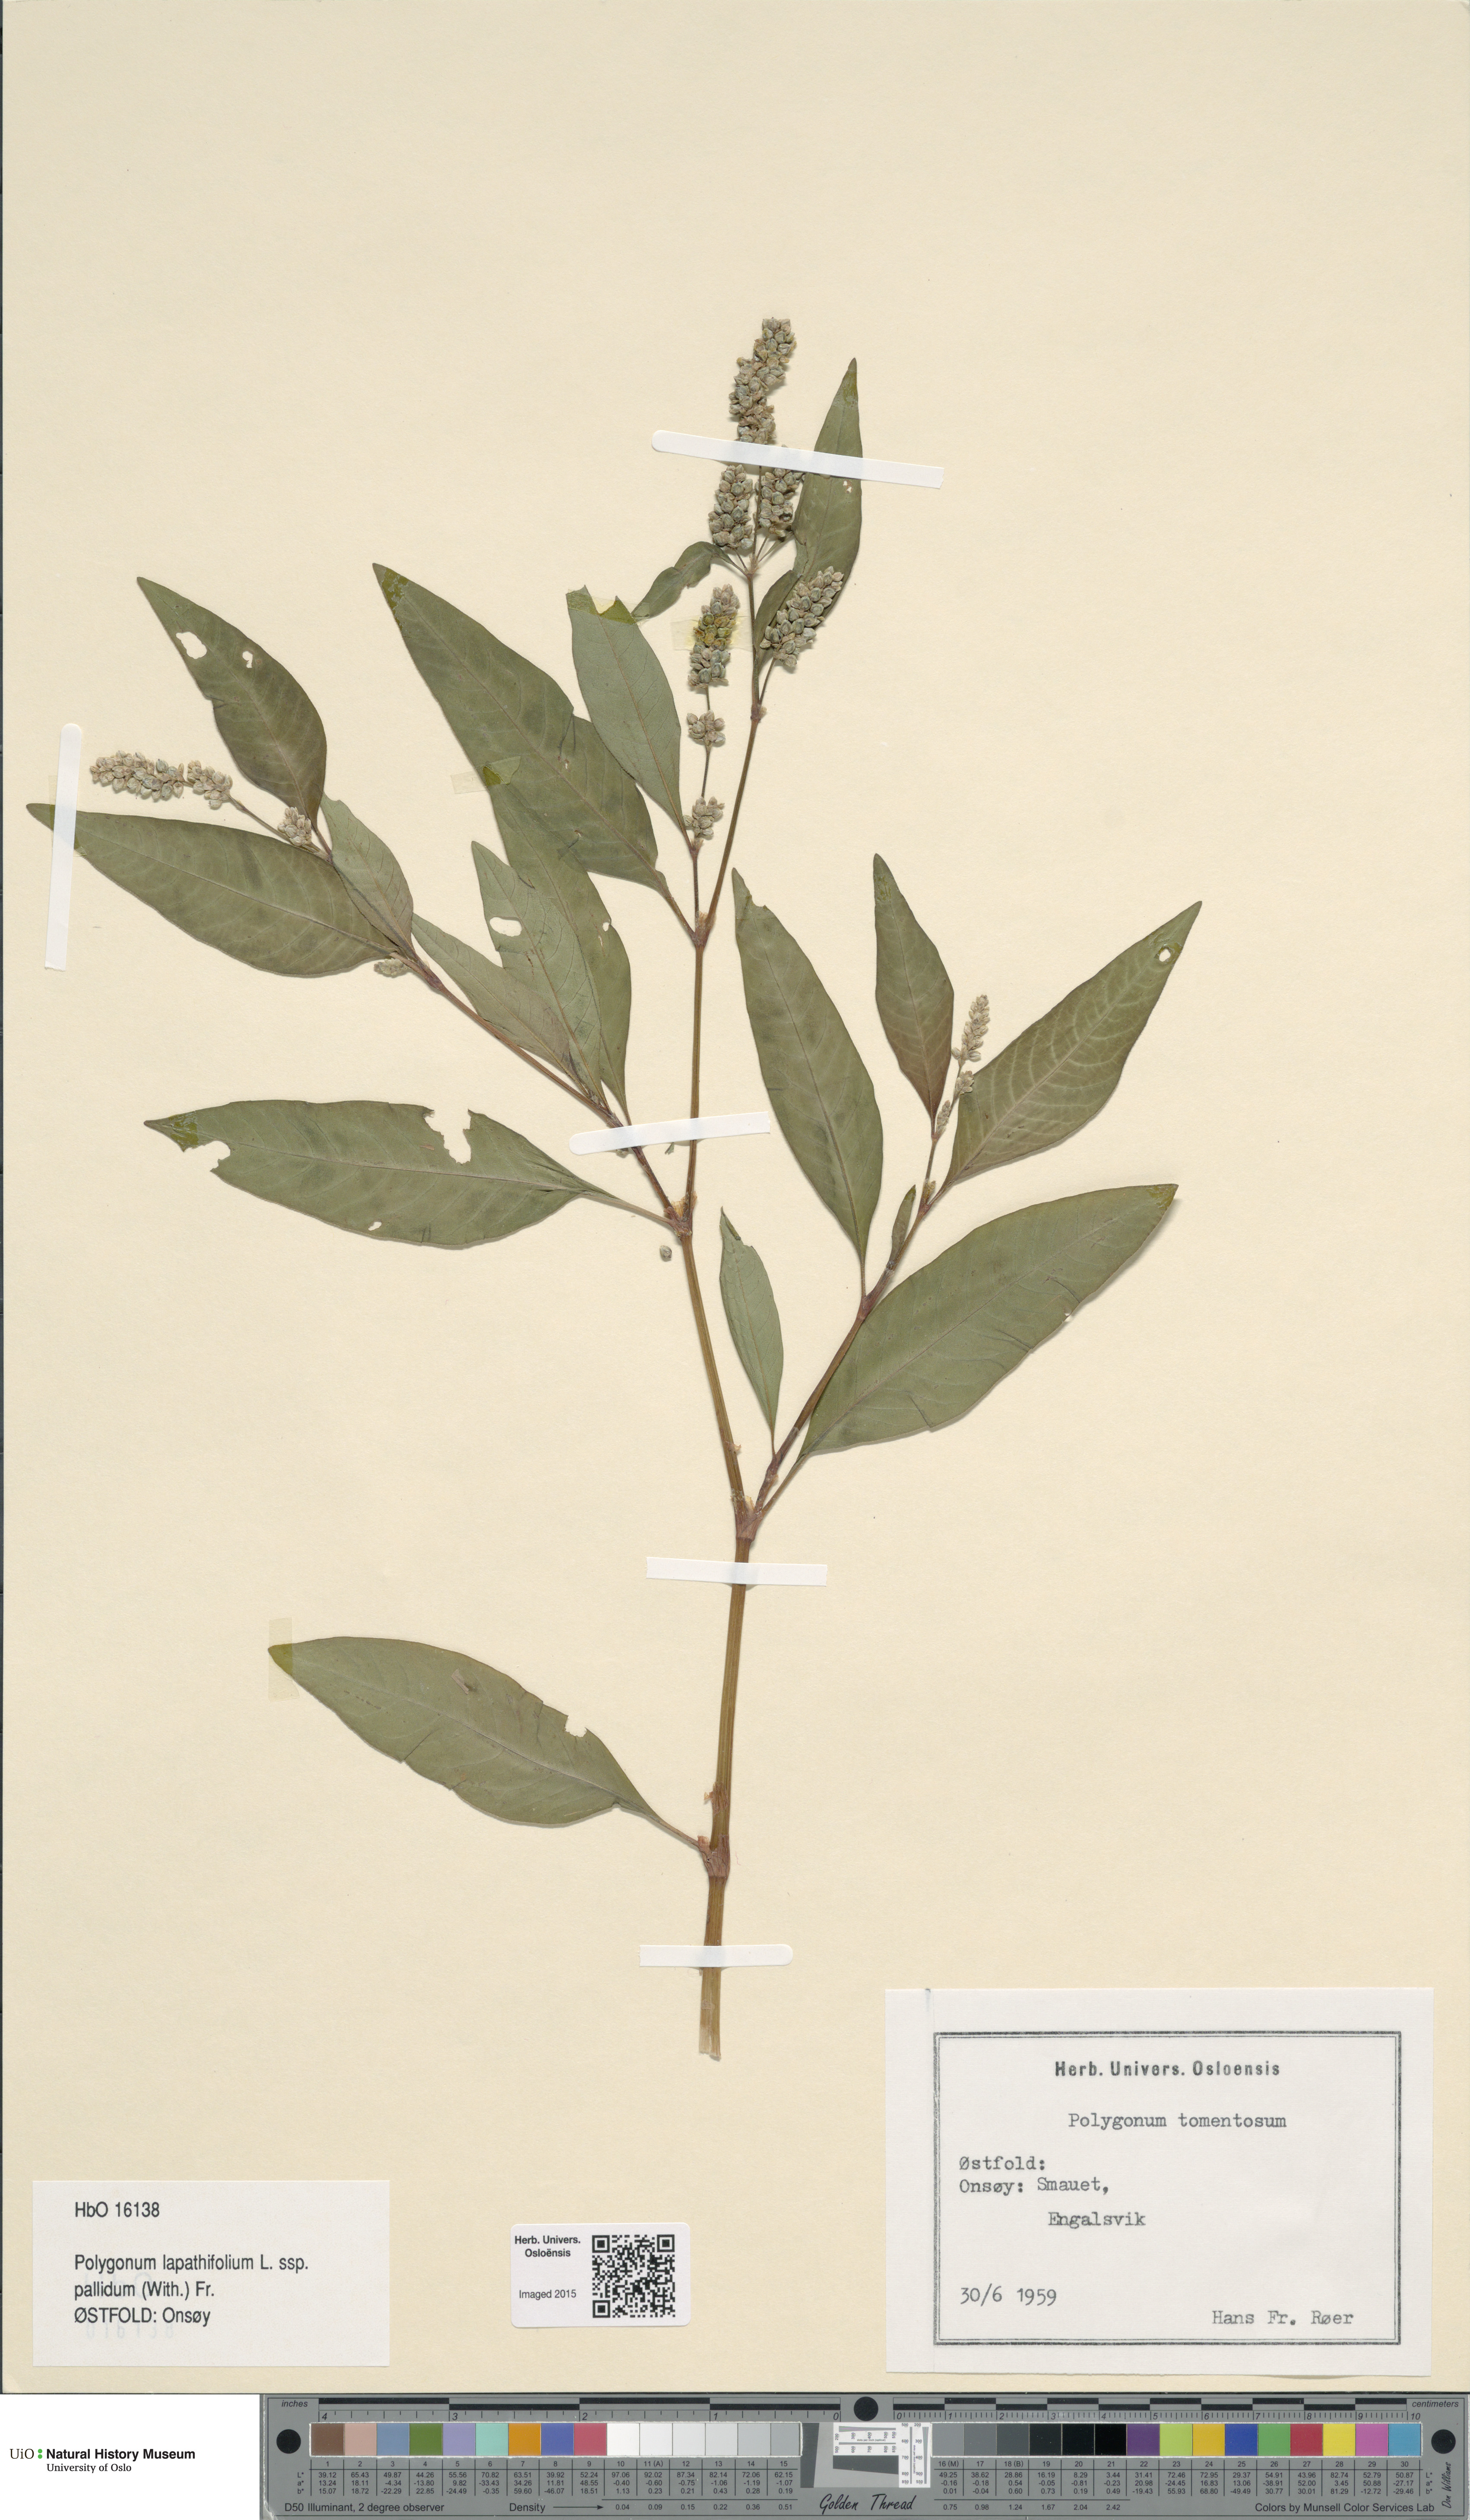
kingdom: Plantae
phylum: Tracheophyta
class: Magnoliopsida
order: Caryophyllales
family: Polygonaceae
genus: Persicaria
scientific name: Persicaria lapathifolia
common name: Curlytop knotweed
